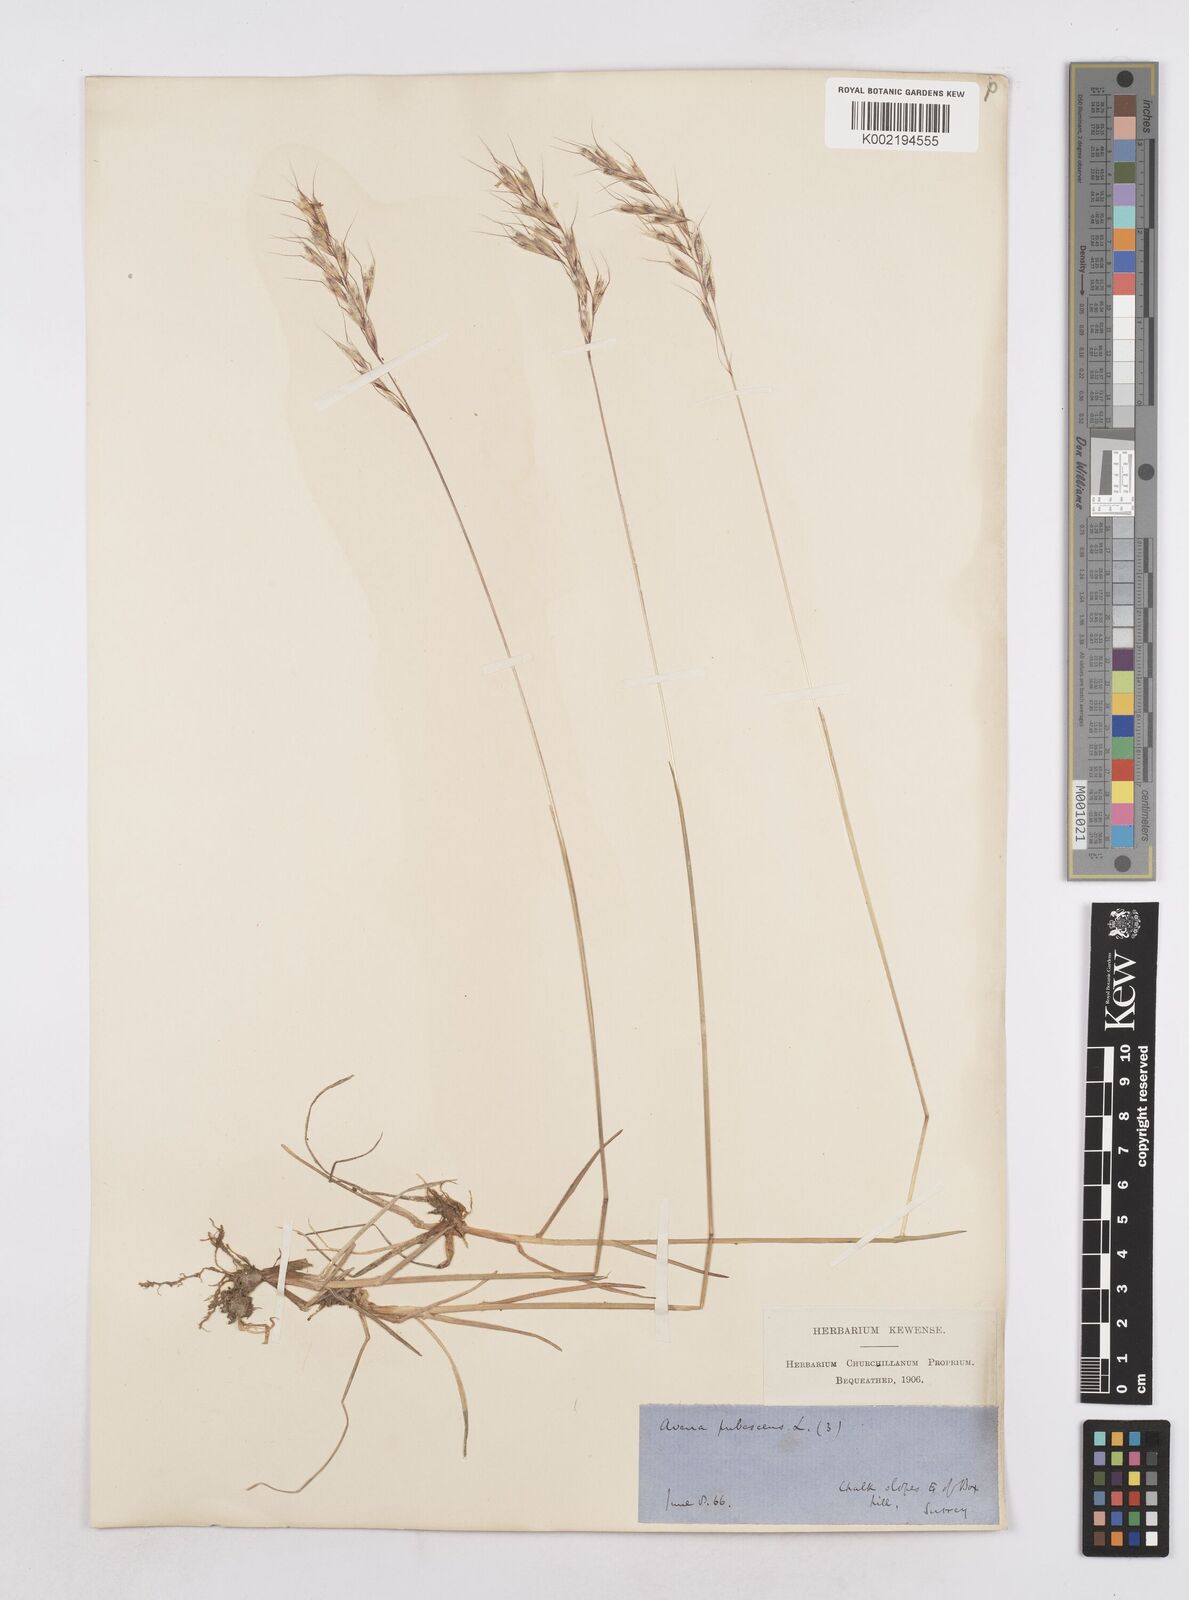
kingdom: Plantae
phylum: Tracheophyta
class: Liliopsida
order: Poales
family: Poaceae
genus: Avenula
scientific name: Avenula pubescens
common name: Downy alpine oatgrass
